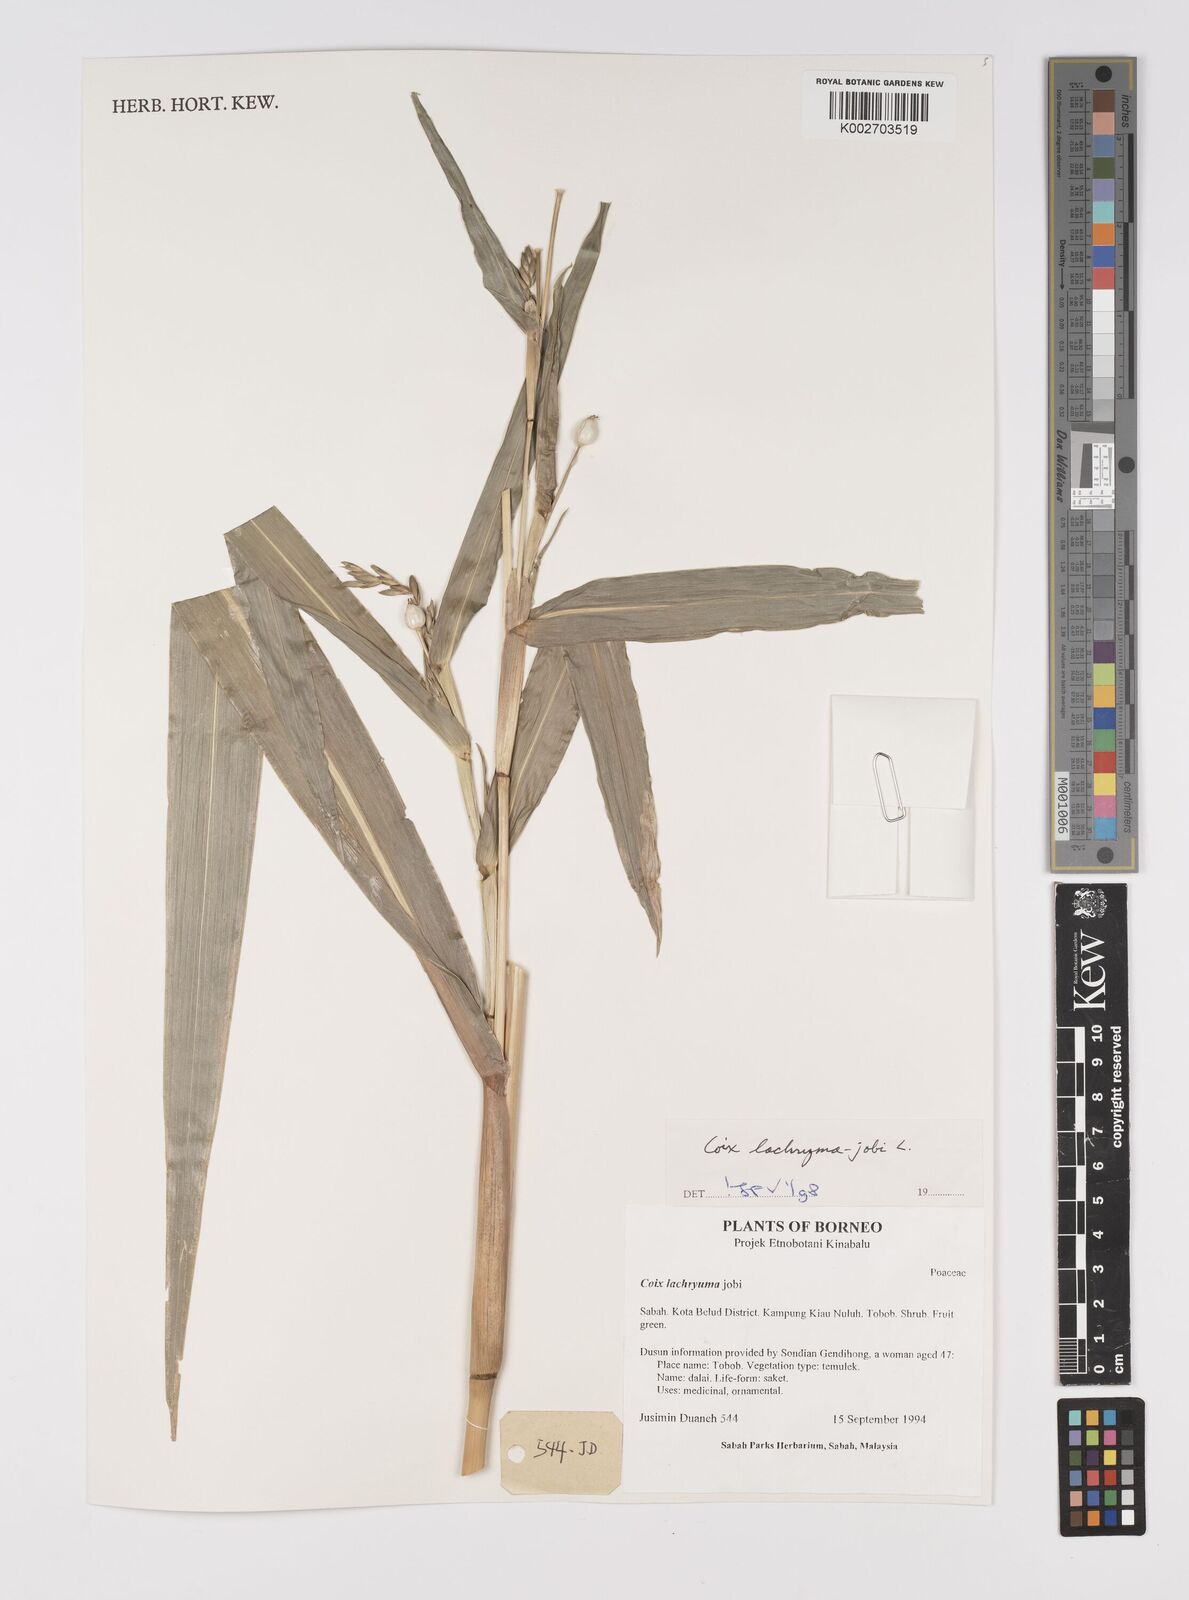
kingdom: Plantae
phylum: Tracheophyta
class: Liliopsida
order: Poales
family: Poaceae
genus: Coix
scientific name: Coix lacryma-jobi
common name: Job's tears
